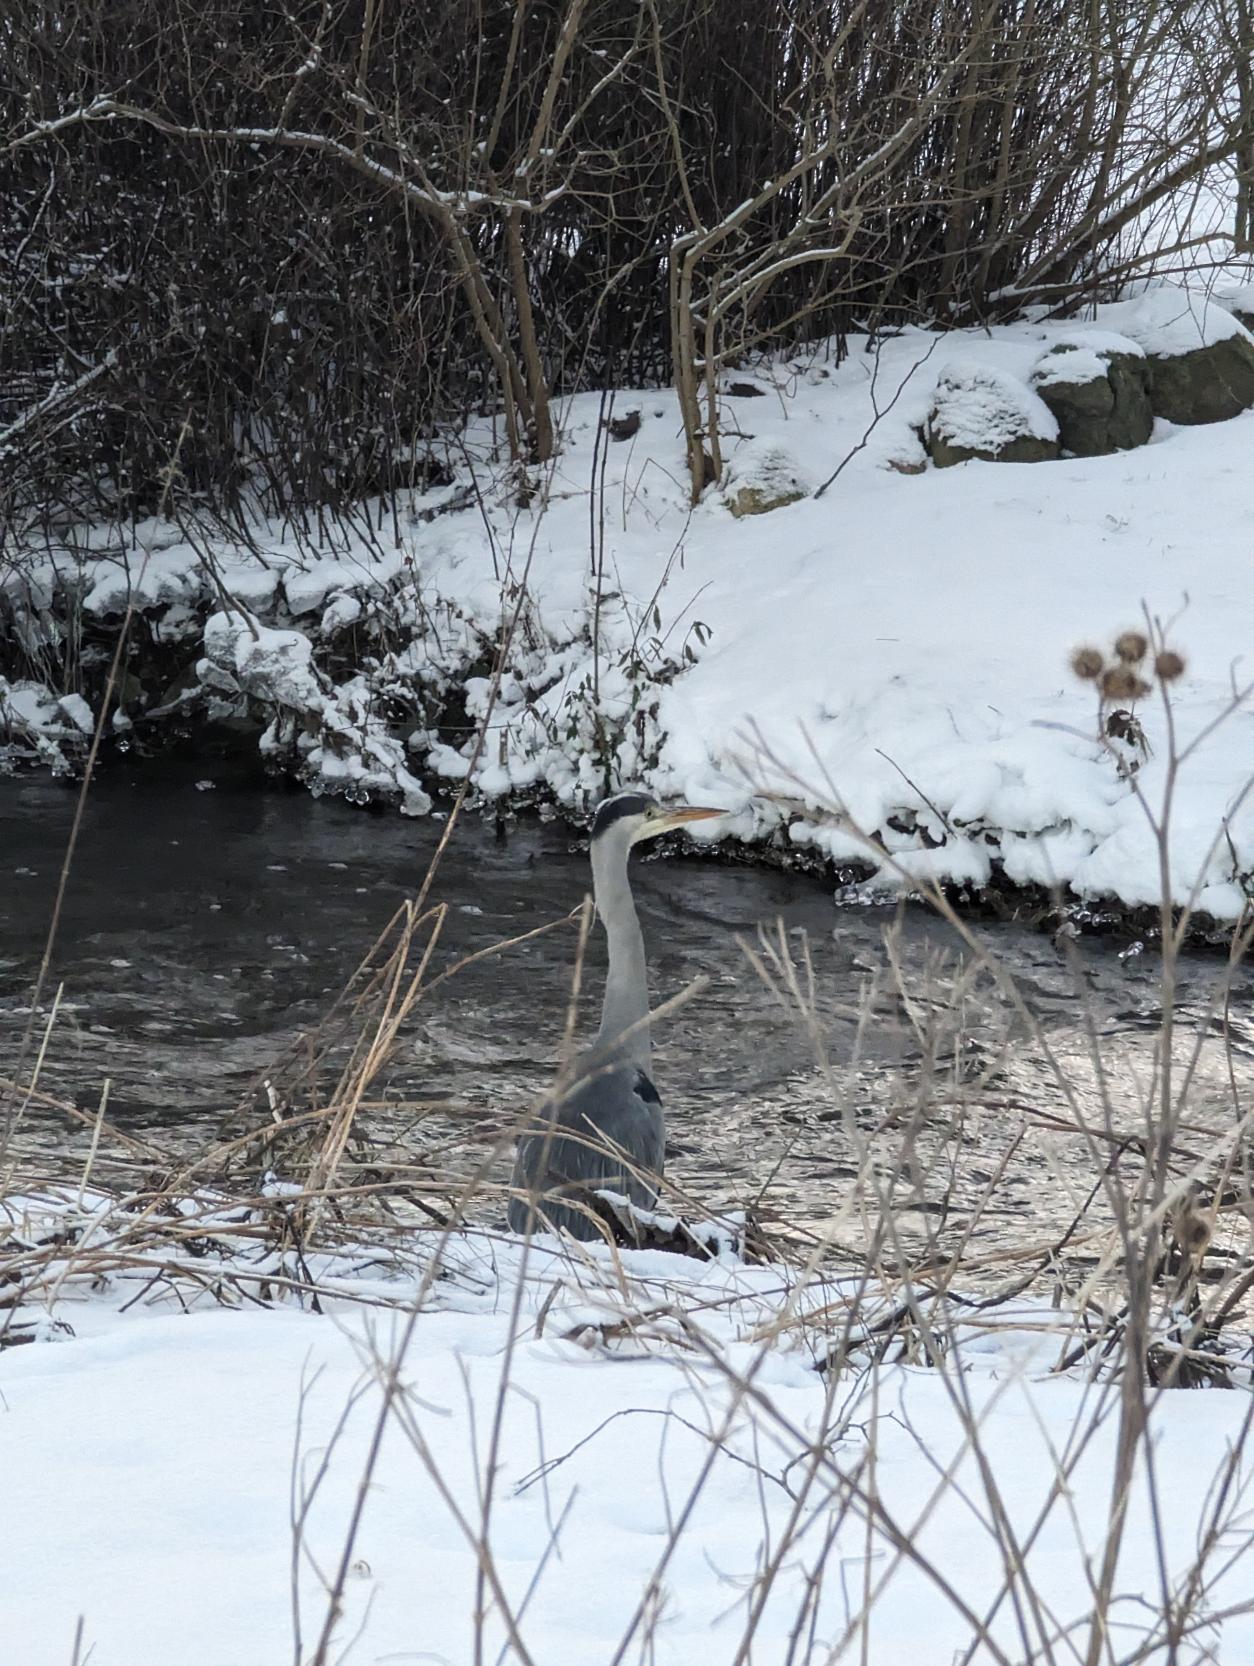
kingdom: Animalia
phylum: Chordata
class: Aves
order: Pelecaniformes
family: Ardeidae
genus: Ardea
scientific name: Ardea cinerea
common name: Fiskehejre
